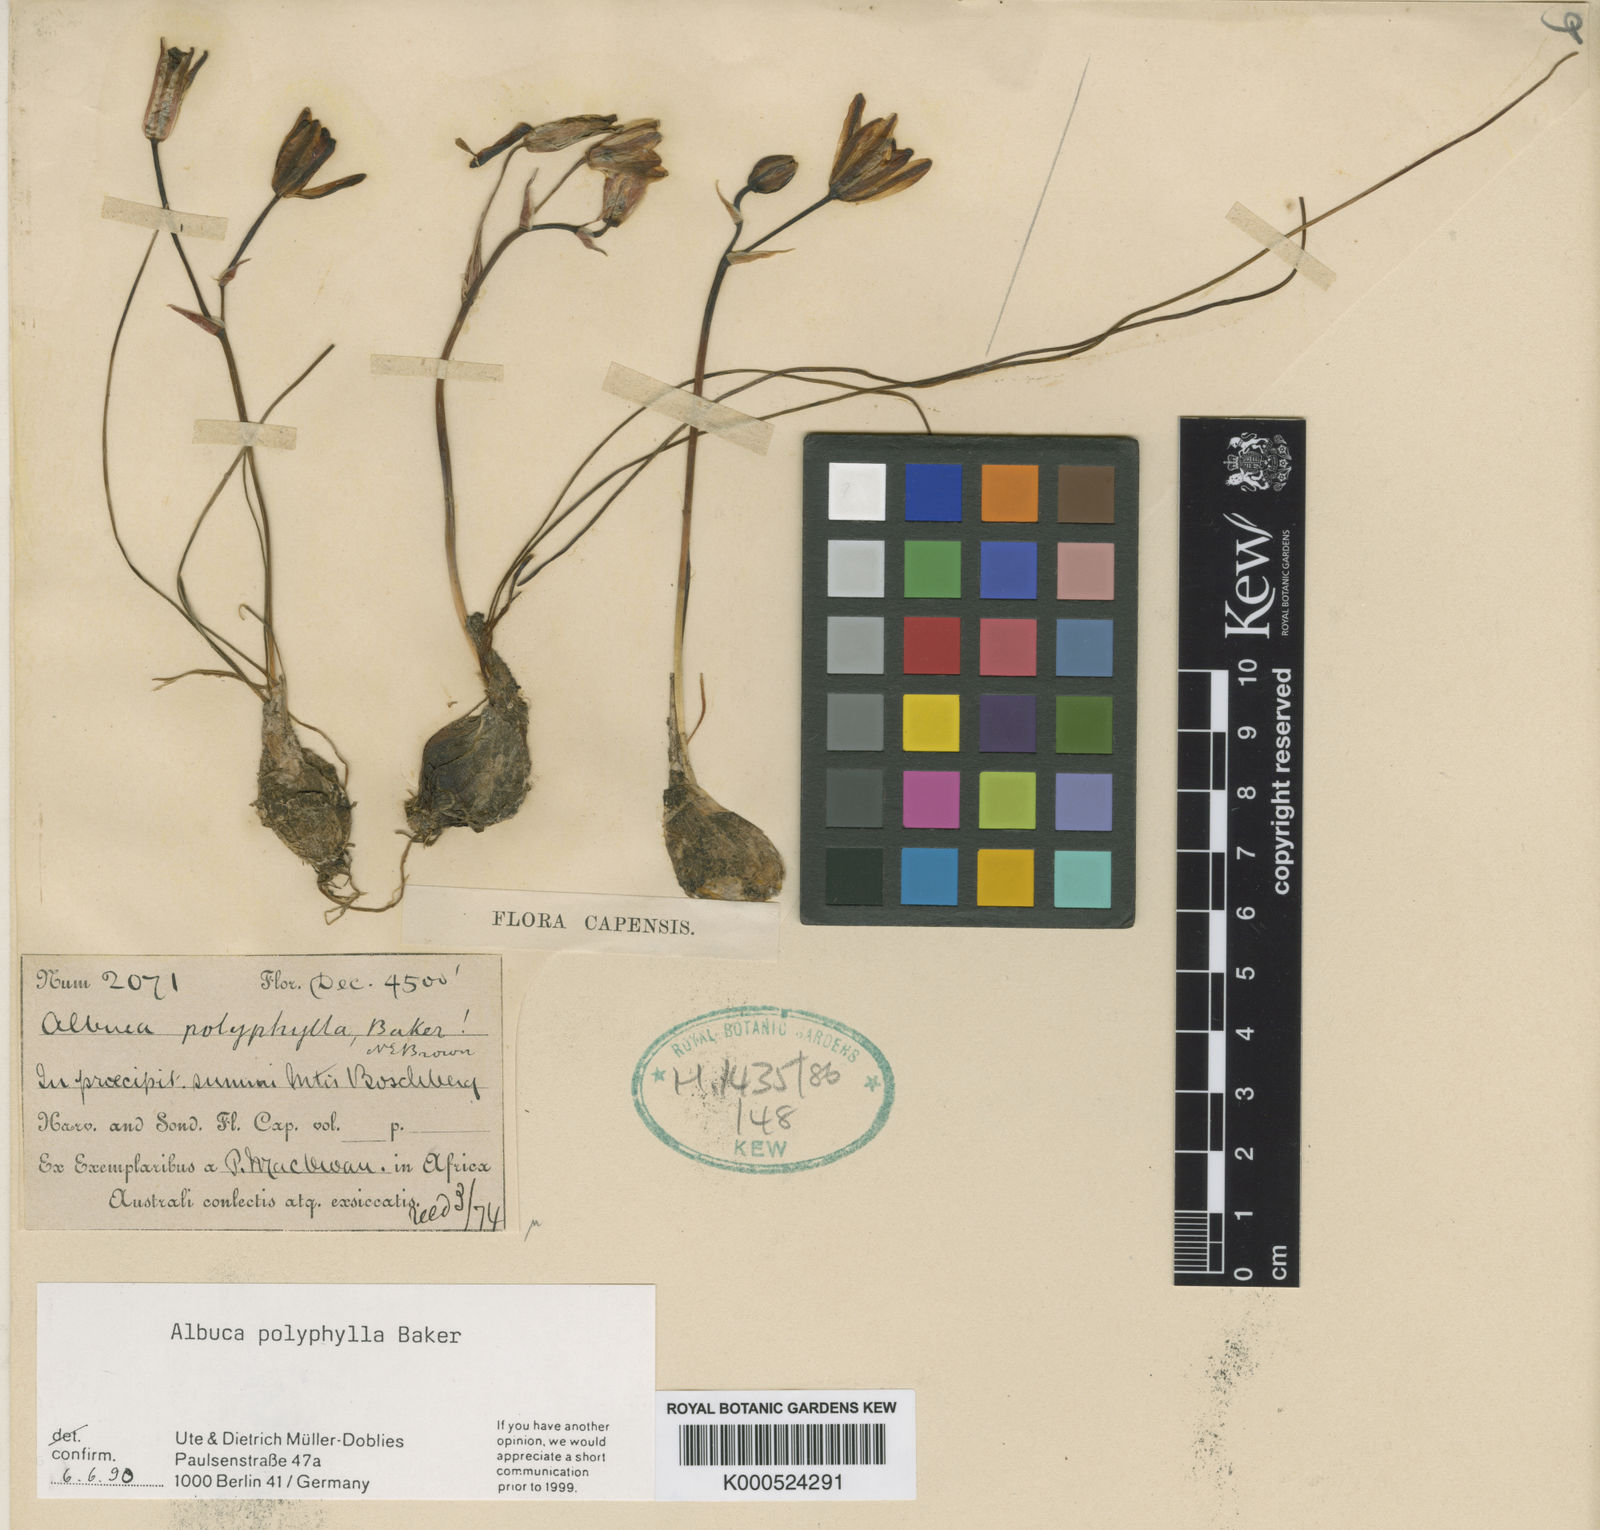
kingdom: Plantae
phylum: Tracheophyta
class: Liliopsida
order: Asparagales
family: Asparagaceae
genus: Albuca
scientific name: Albuca polyphylla
